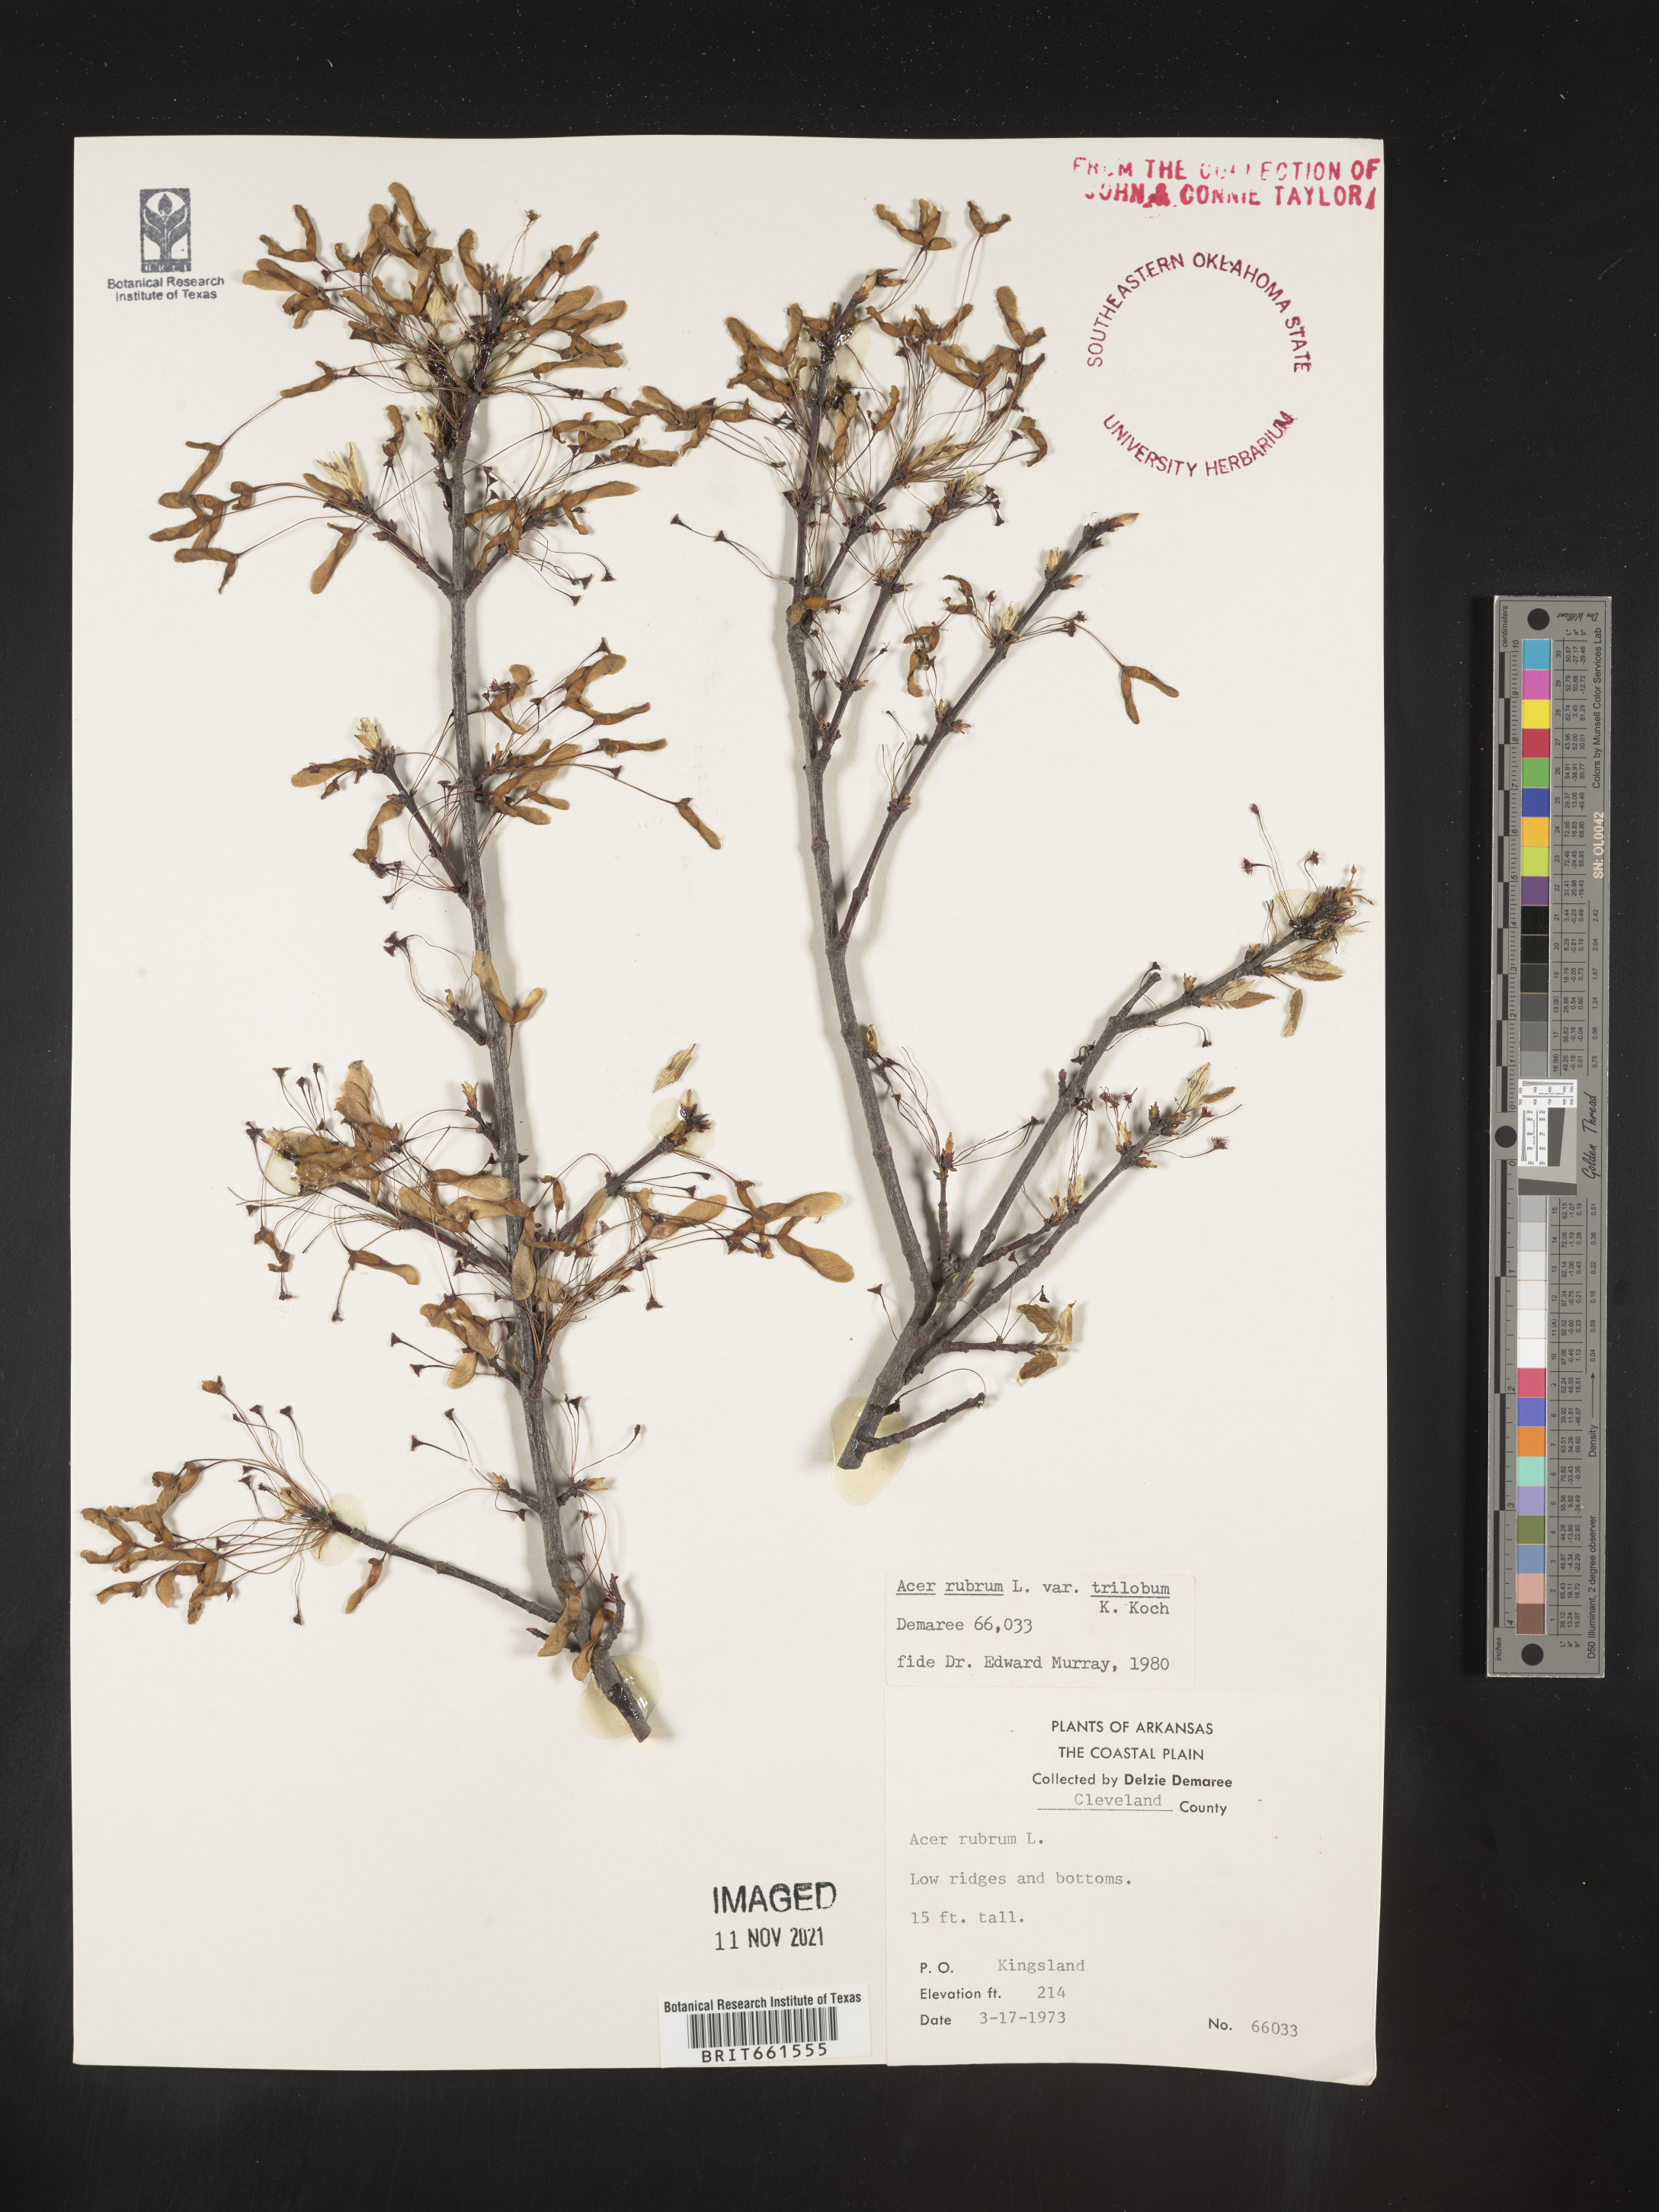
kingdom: Plantae
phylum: Tracheophyta
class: Magnoliopsida
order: Sapindales
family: Sapindaceae
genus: Acer
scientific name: Acer rubrum
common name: Red maple
